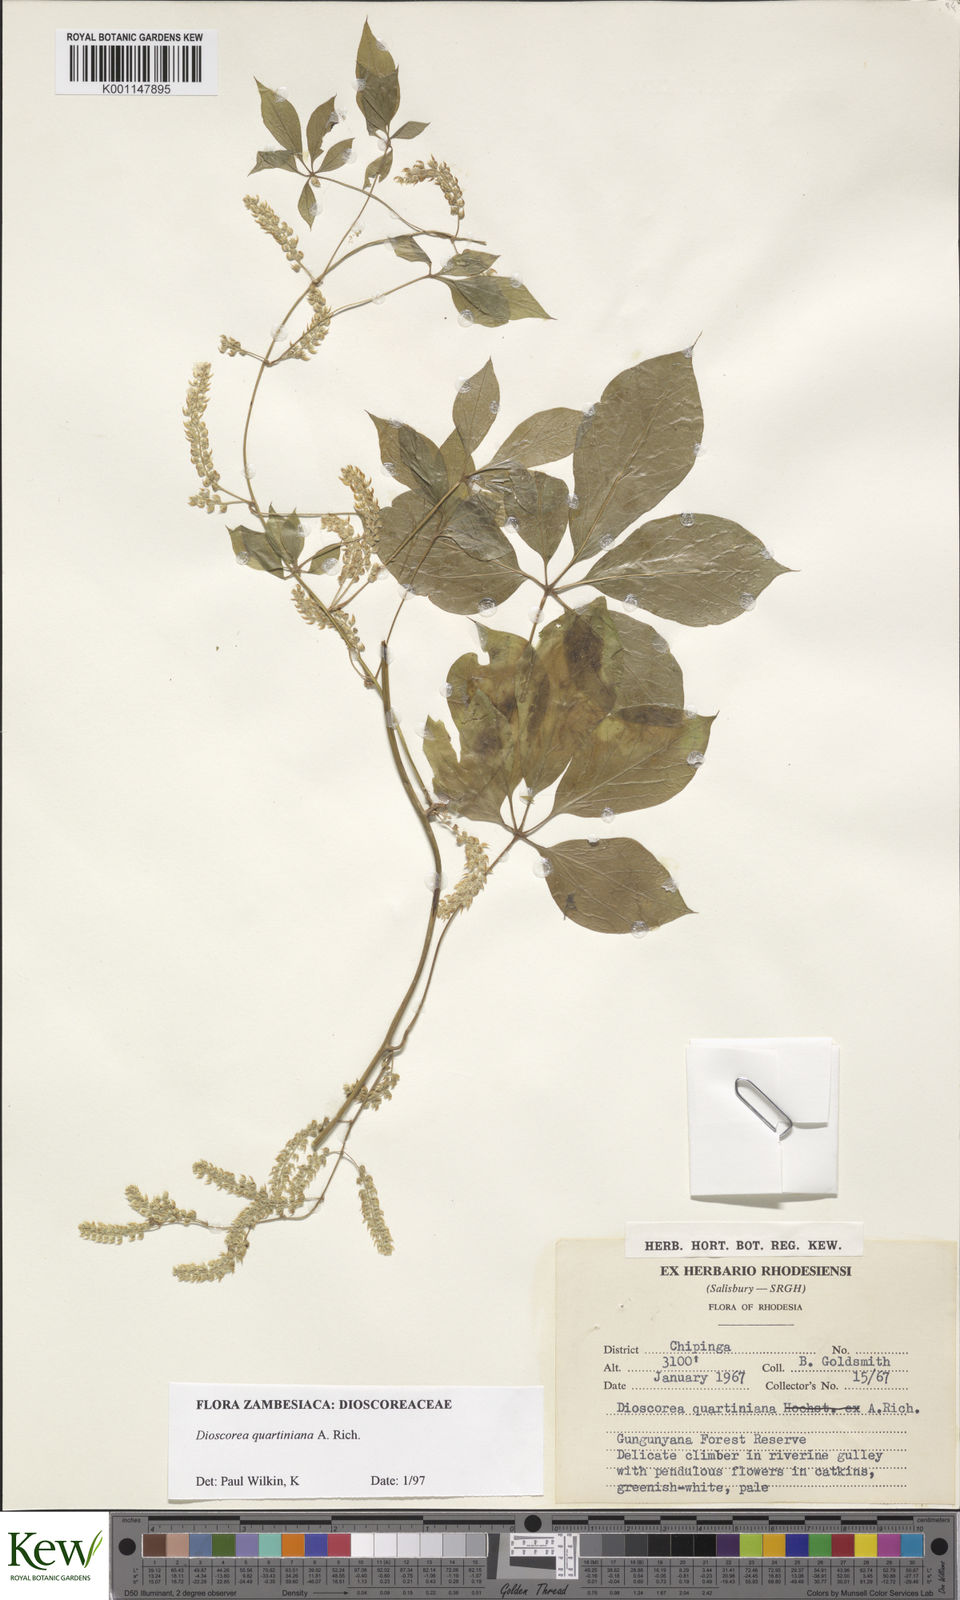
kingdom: Plantae
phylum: Tracheophyta
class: Liliopsida
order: Dioscoreales
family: Dioscoreaceae
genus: Dioscorea
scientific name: Dioscorea quartiniana
